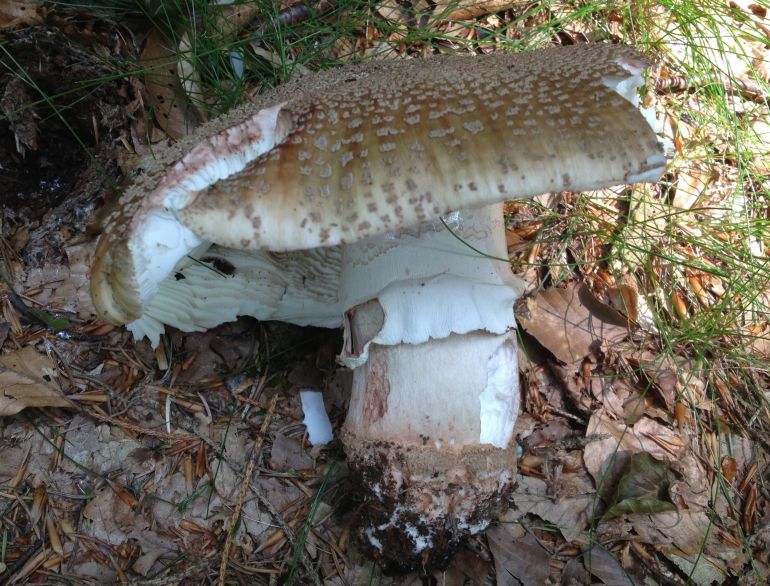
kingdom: Fungi
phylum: Basidiomycota
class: Agaricomycetes
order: Agaricales
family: Amanitaceae
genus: Amanita
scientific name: Amanita rubescens
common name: rødmende fluesvamp
